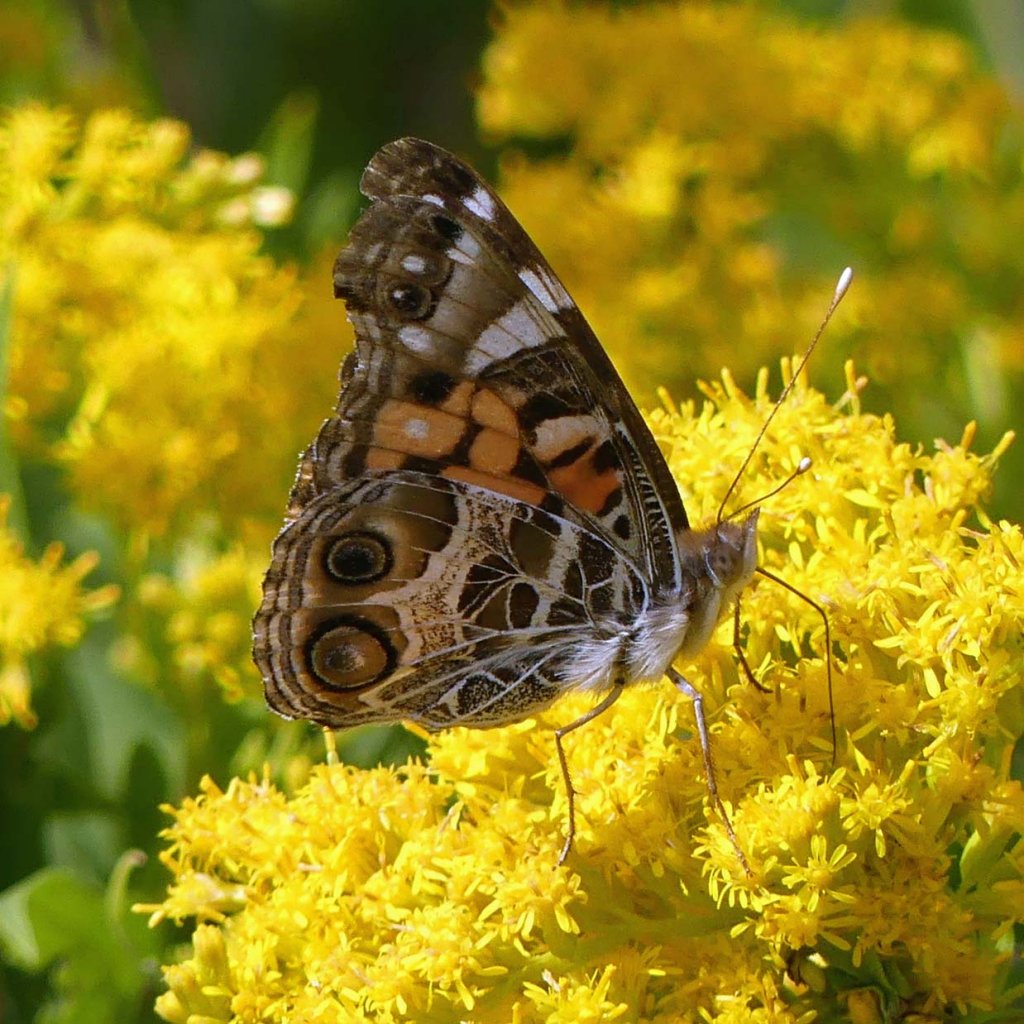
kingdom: Animalia
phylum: Arthropoda
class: Insecta
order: Lepidoptera
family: Nymphalidae
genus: Vanessa
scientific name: Vanessa virginiensis
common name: American Lady
